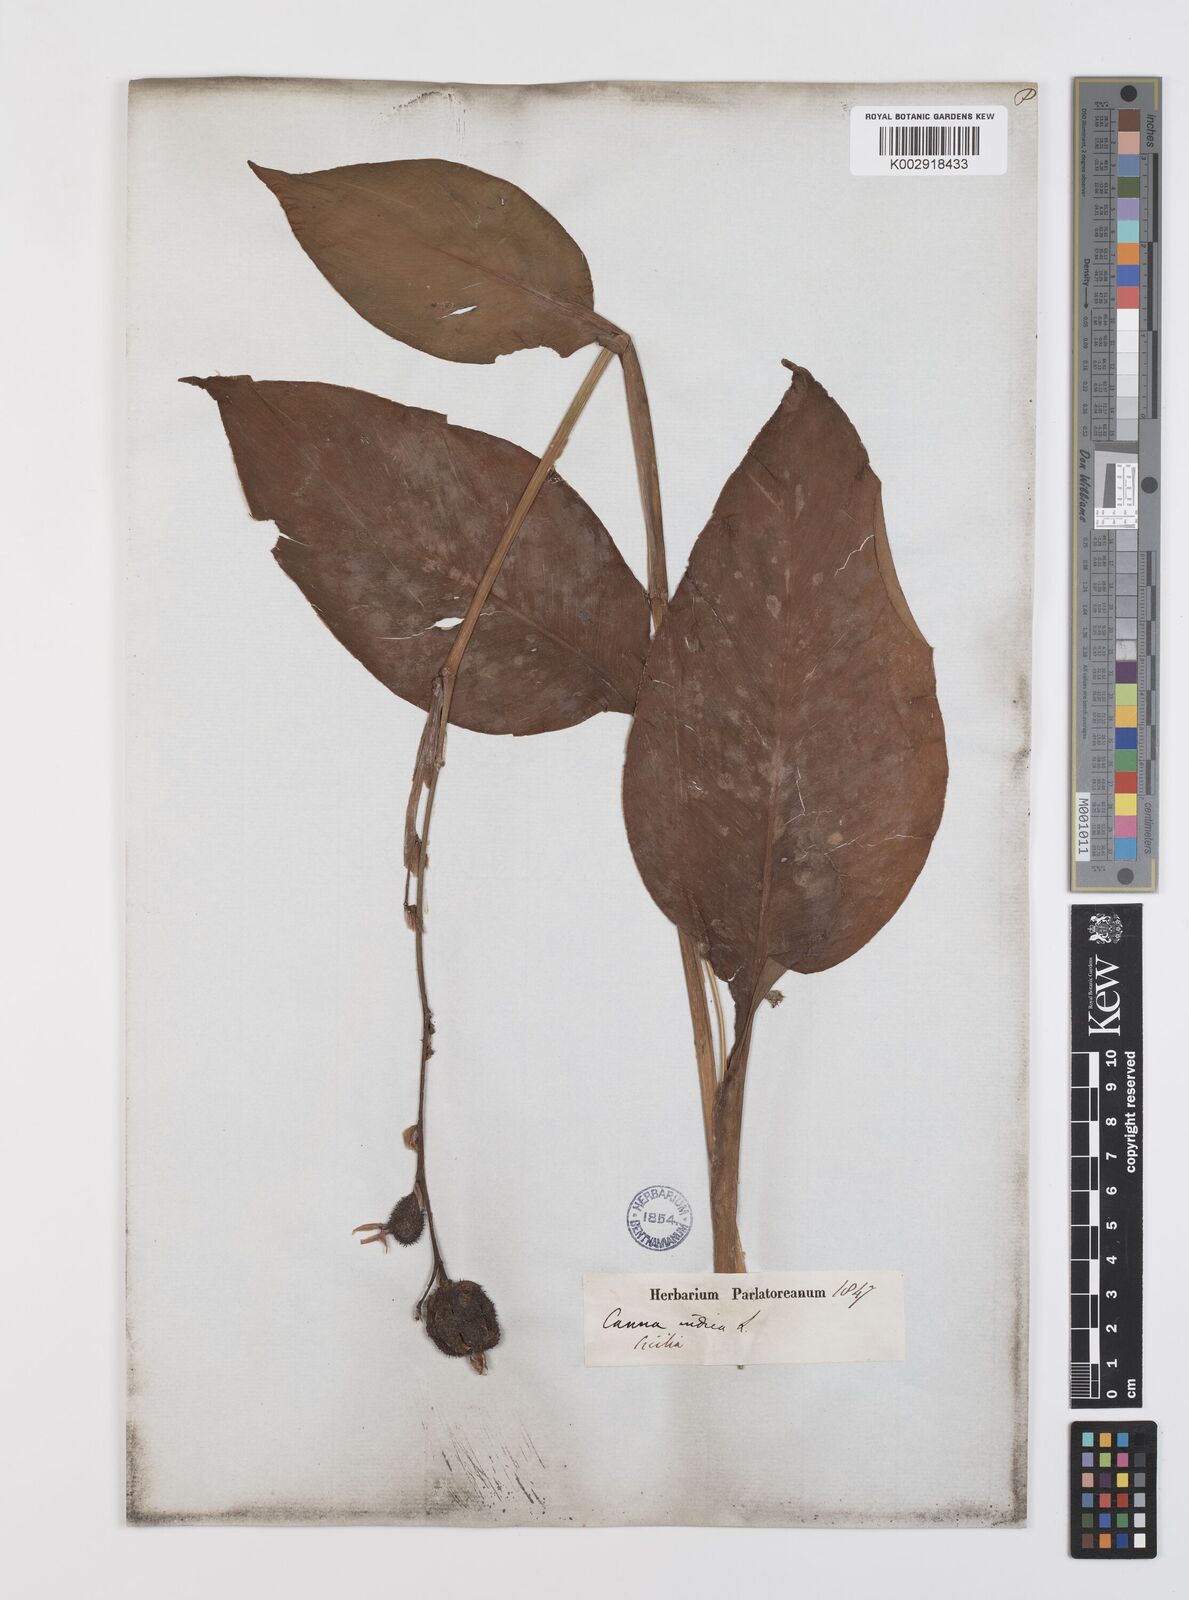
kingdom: Plantae
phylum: Tracheophyta
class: Liliopsida
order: Zingiberales
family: Cannaceae
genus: Canna
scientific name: Canna indica
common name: Indian shot
